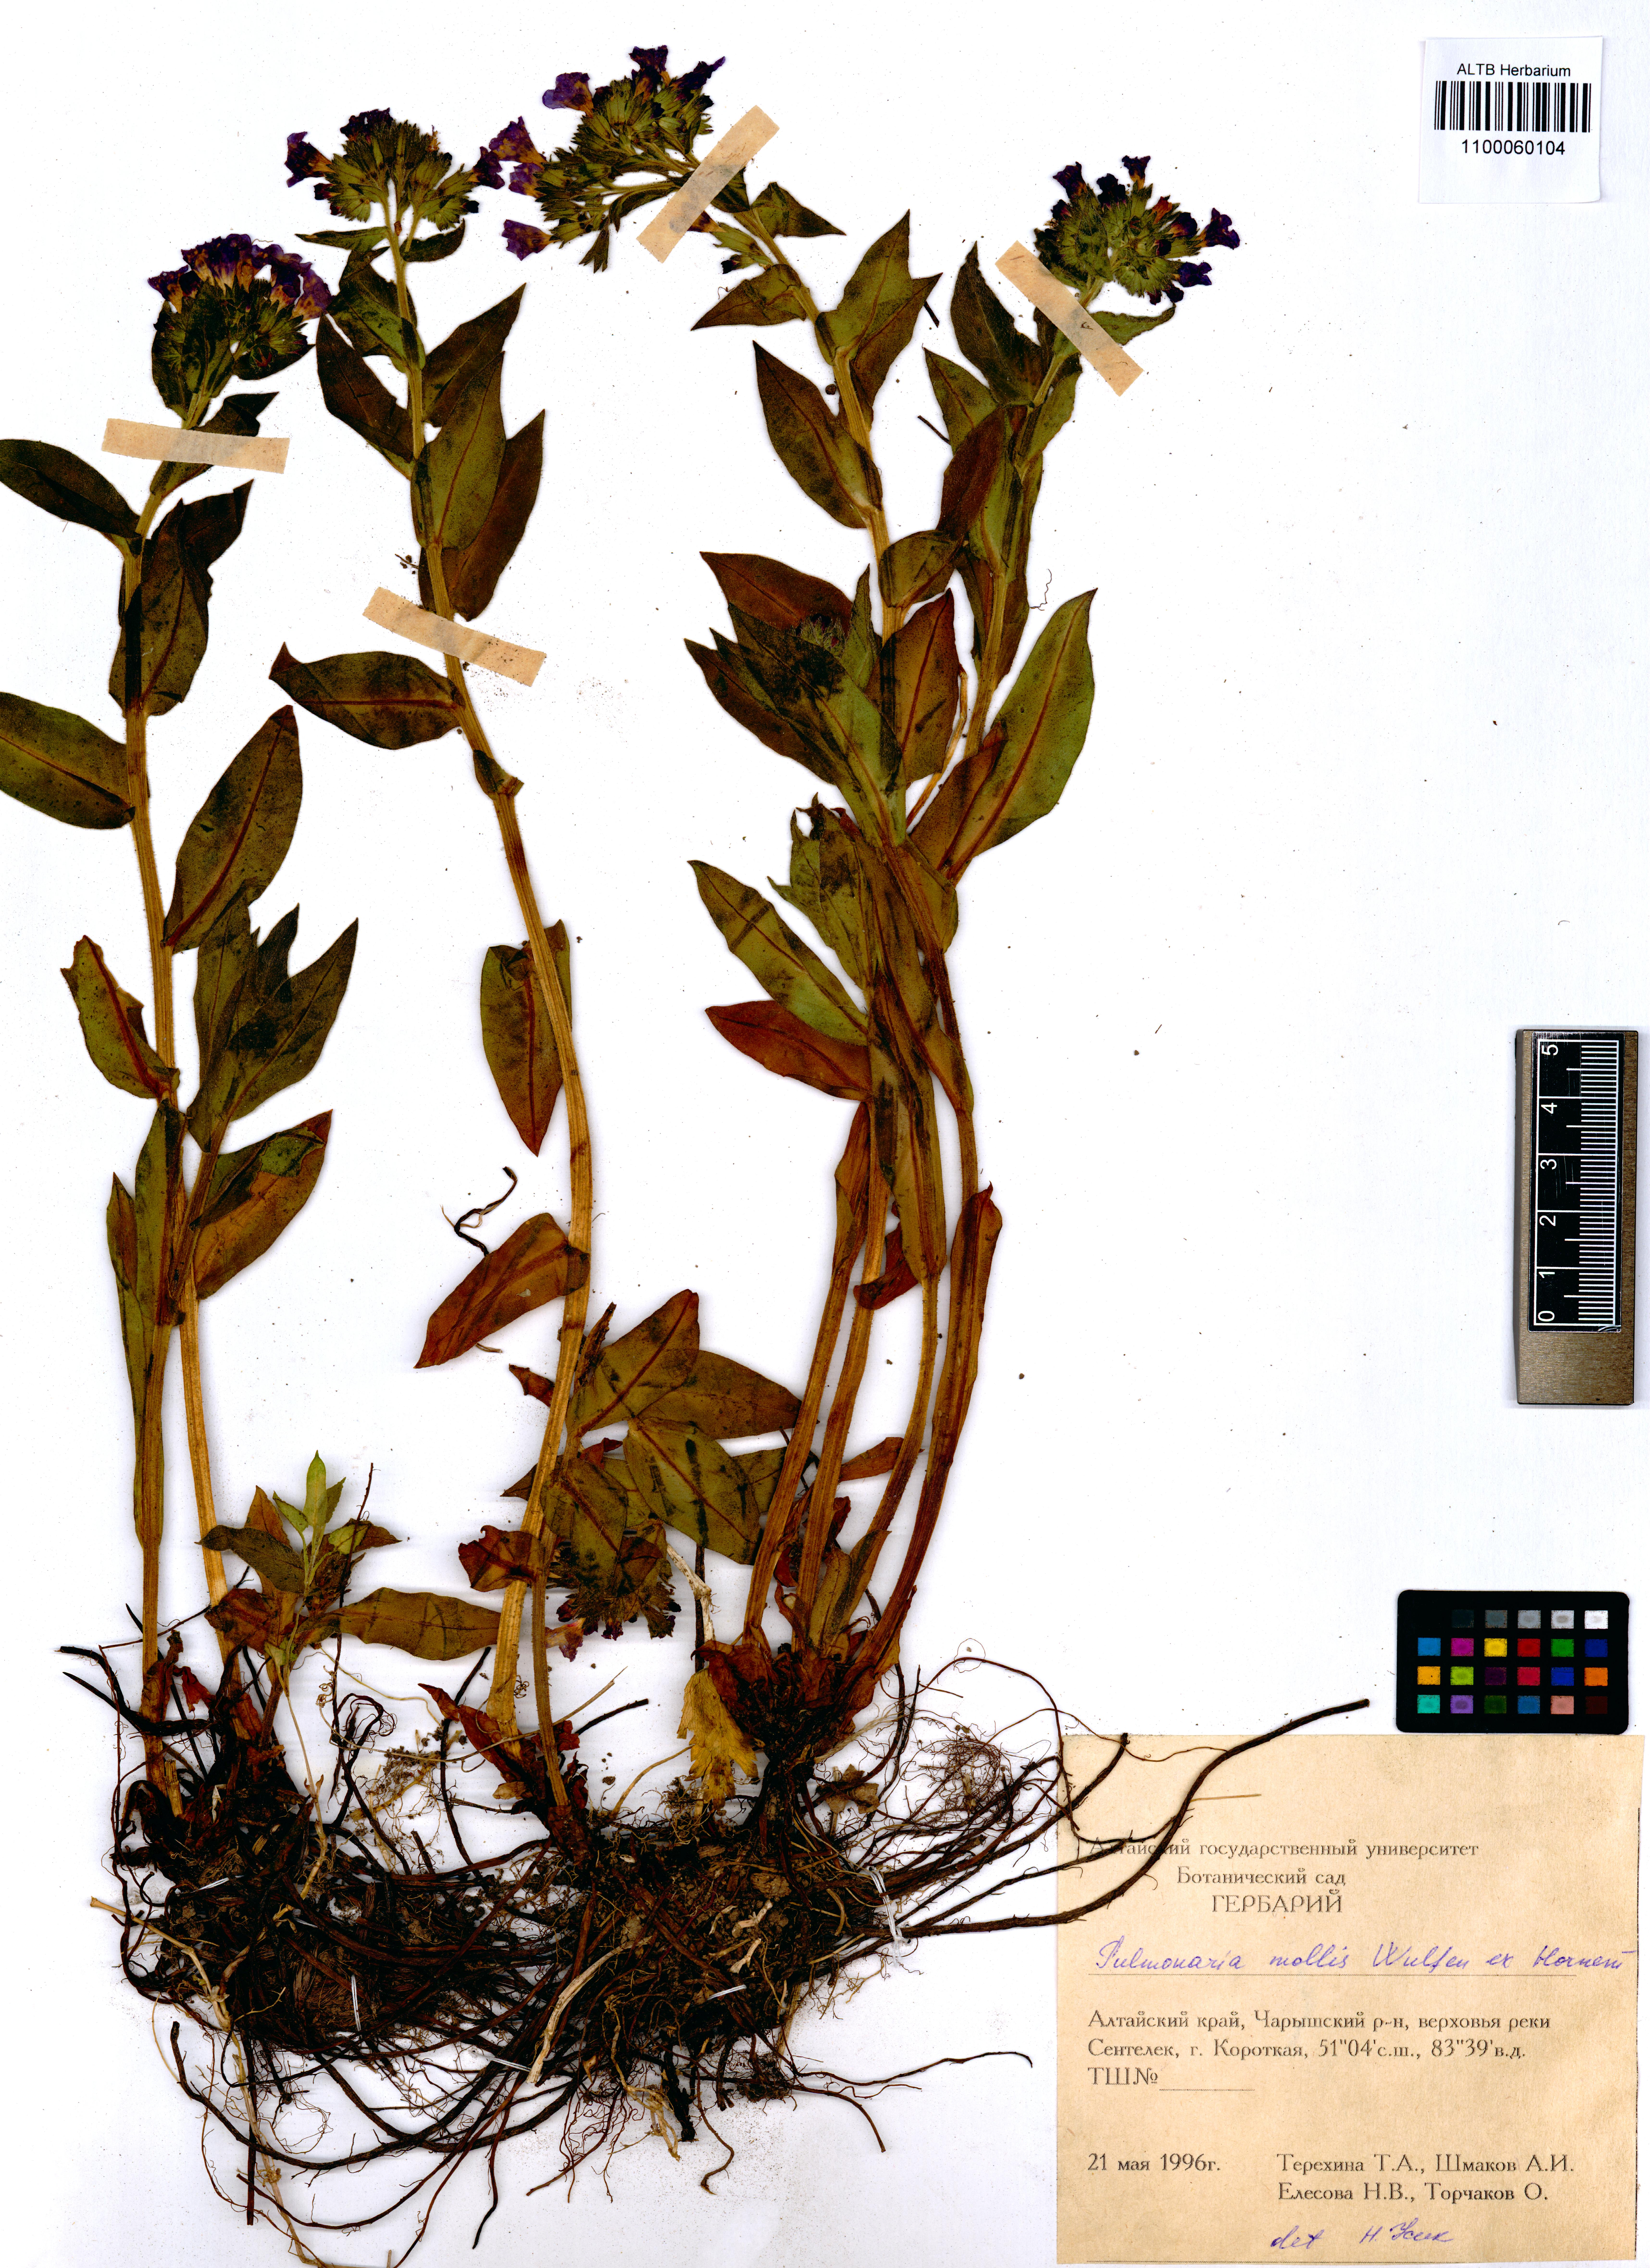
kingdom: Plantae
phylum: Tracheophyta
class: Magnoliopsida
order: Boraginales
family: Boraginaceae
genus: Pulmonaria
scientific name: Pulmonaria mollis
